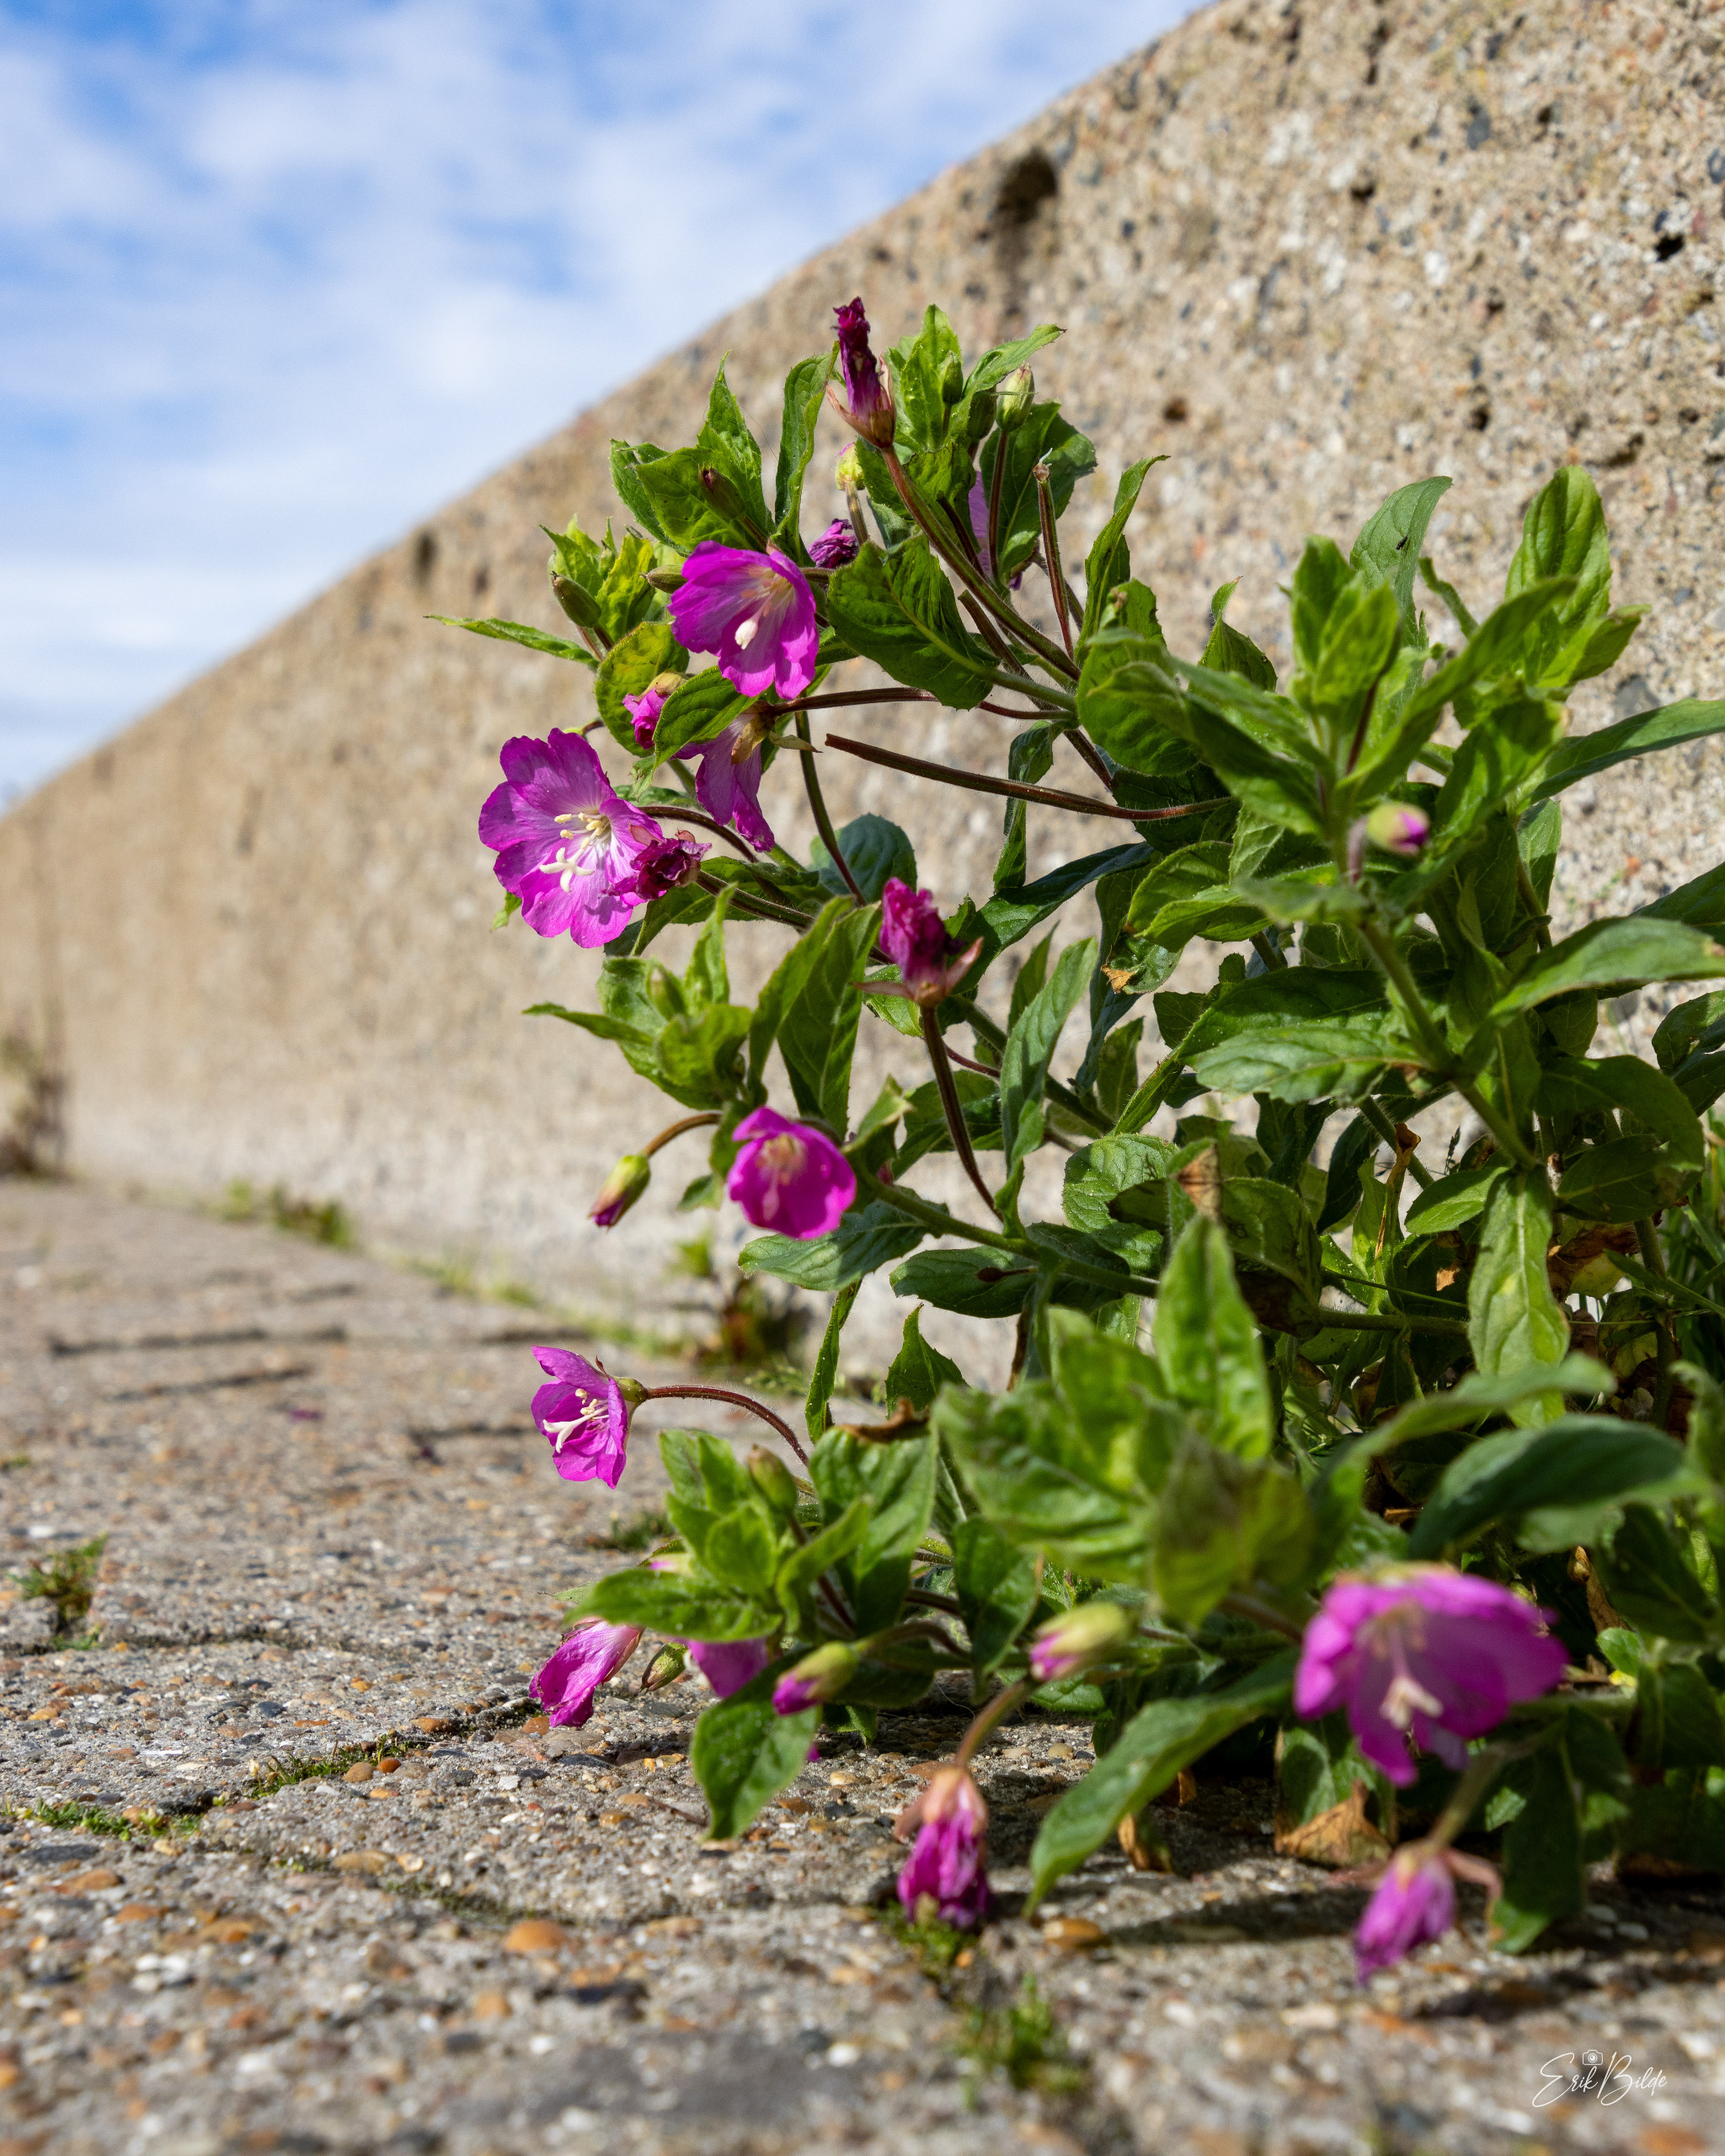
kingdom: Plantae
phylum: Tracheophyta
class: Magnoliopsida
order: Myrtales
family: Onagraceae
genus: Epilobium
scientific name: Epilobium hirsutum
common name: Lådden dueurt
